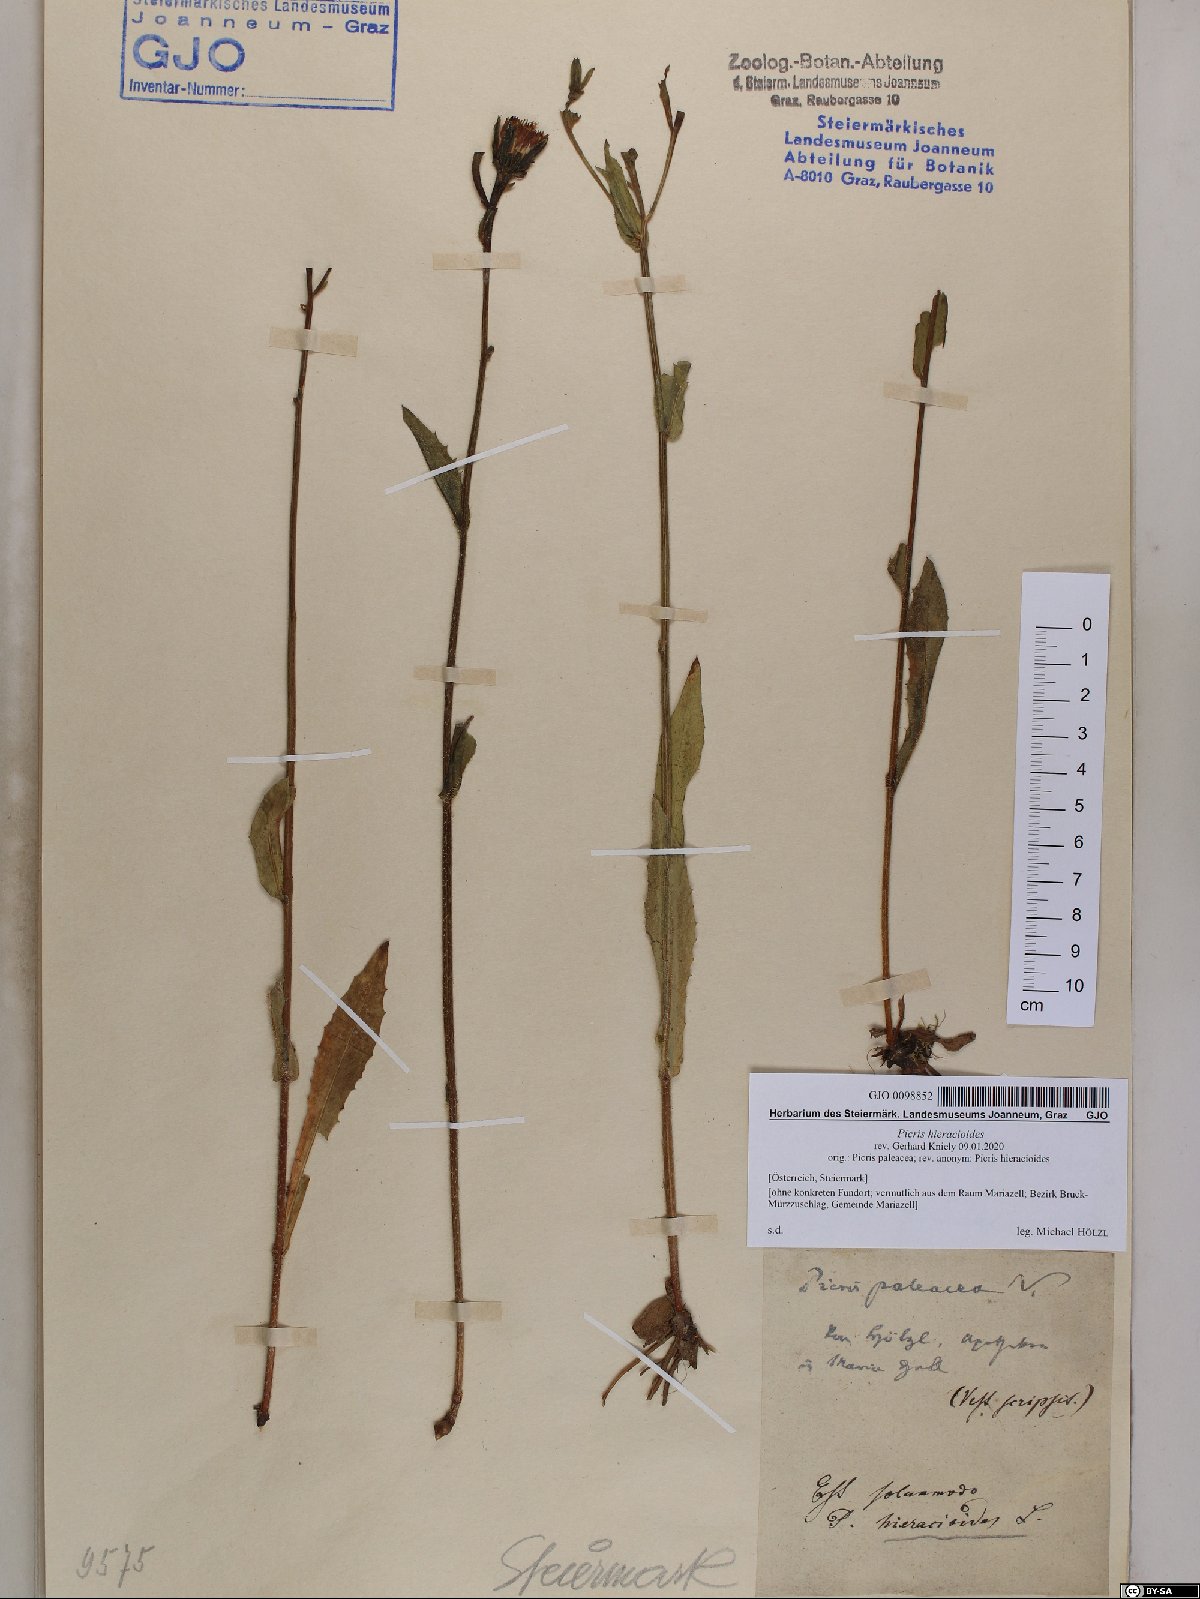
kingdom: Plantae
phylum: Tracheophyta
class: Magnoliopsida
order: Asterales
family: Asteraceae
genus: Picris
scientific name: Picris hieracioides
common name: Hawkweed oxtongue
